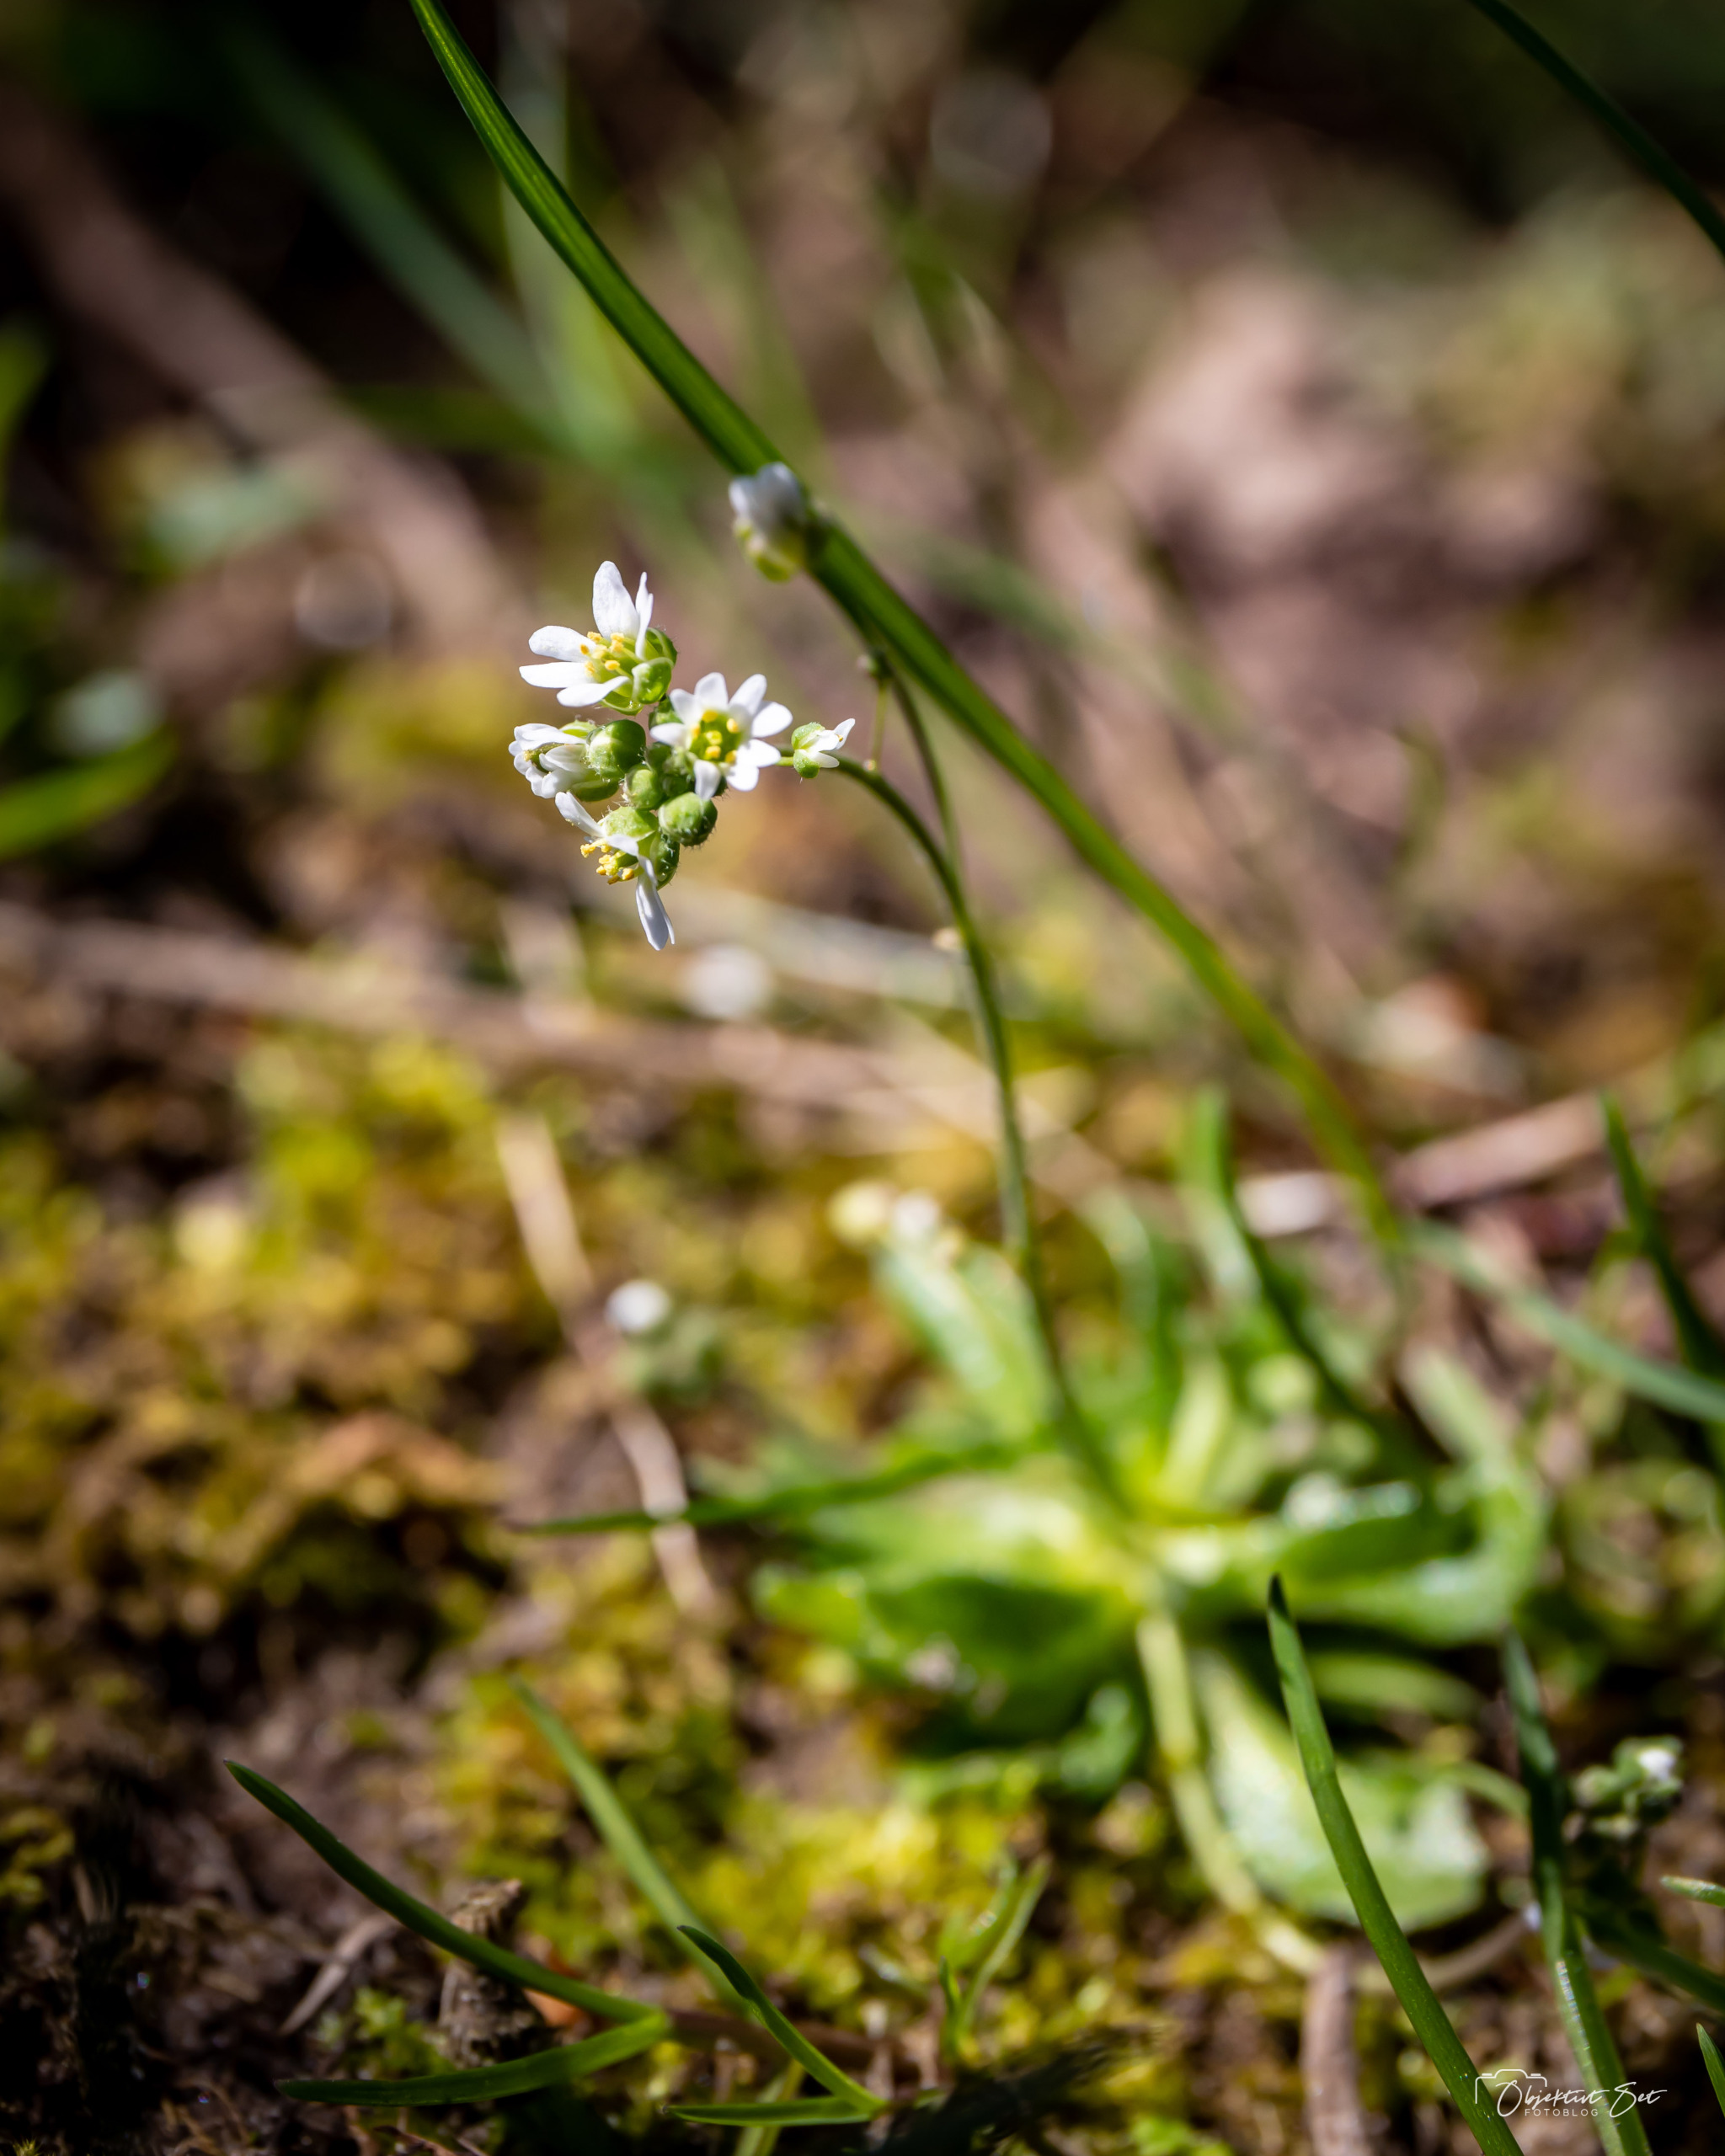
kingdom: Plantae
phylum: Tracheophyta
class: Magnoliopsida
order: Brassicales
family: Brassicaceae
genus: Draba
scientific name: Draba verna
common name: Vår-gæslingeblomst
